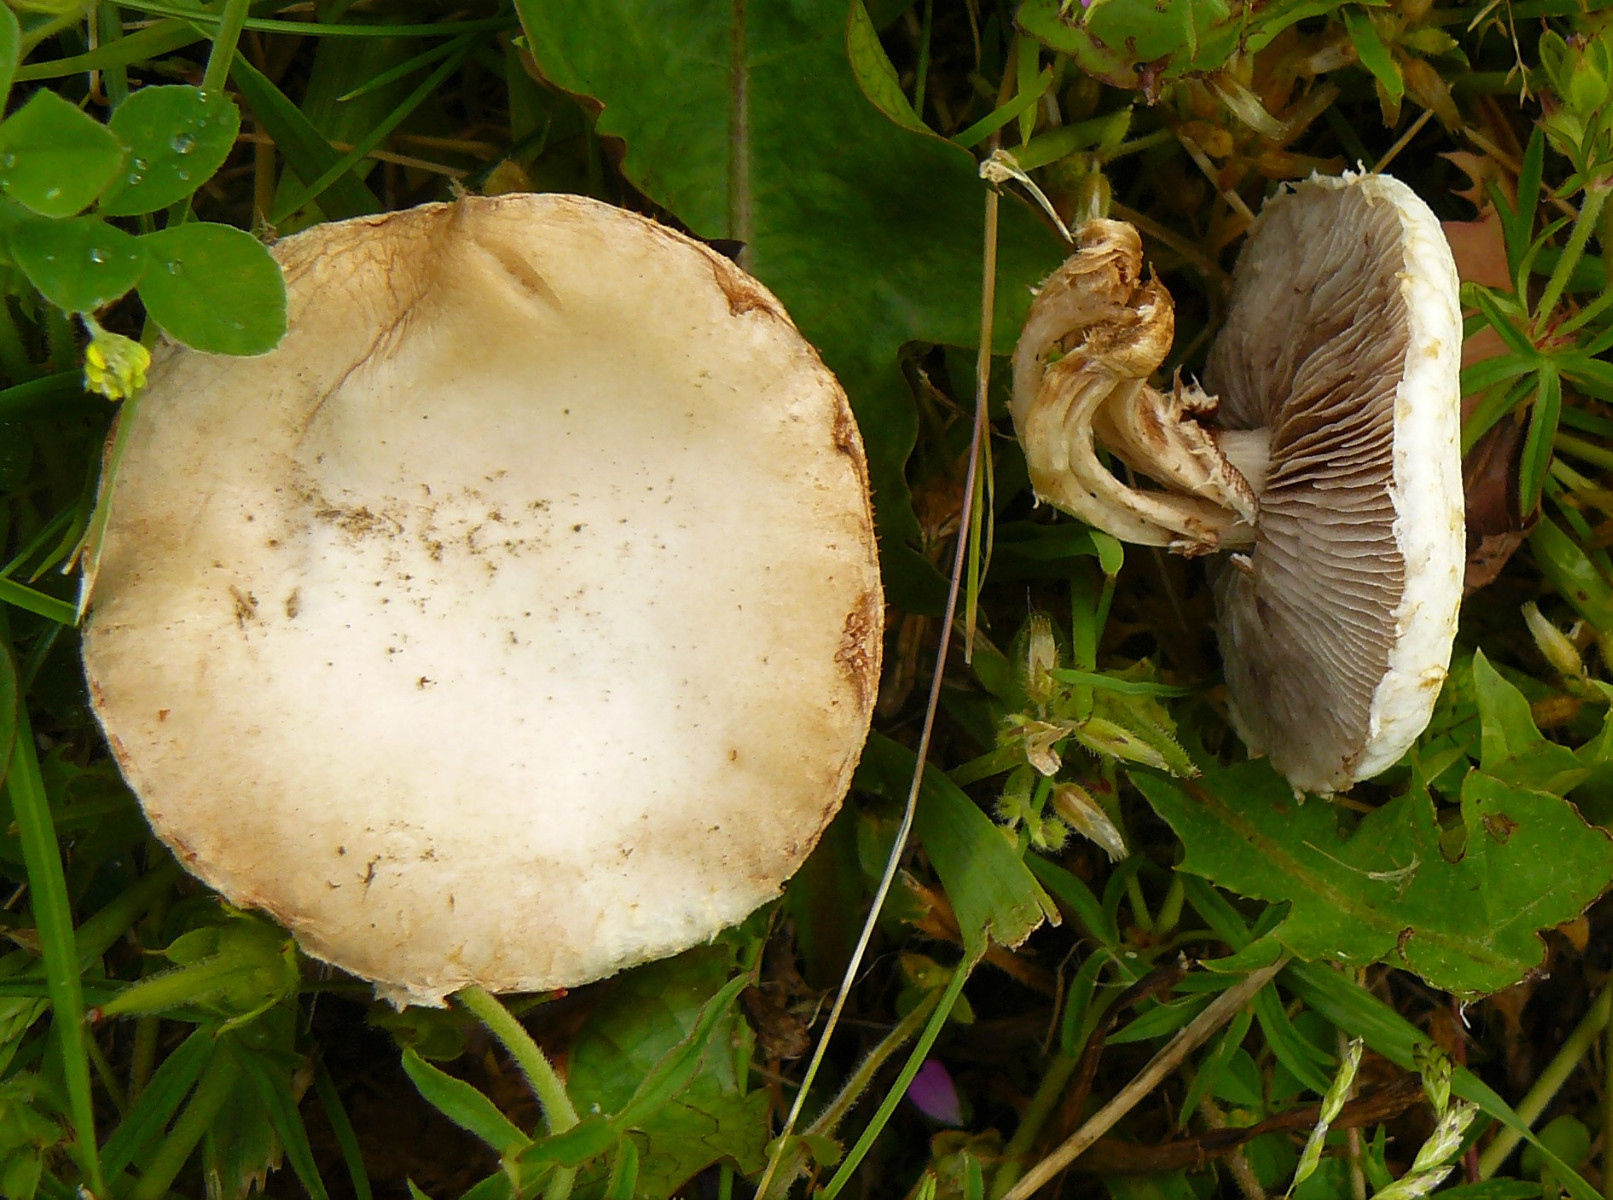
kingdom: Fungi
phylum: Basidiomycota
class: Agaricomycetes
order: Agaricales
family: Strophariaceae
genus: Agrocybe
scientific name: Agrocybe praecox
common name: tidlig agerhat
